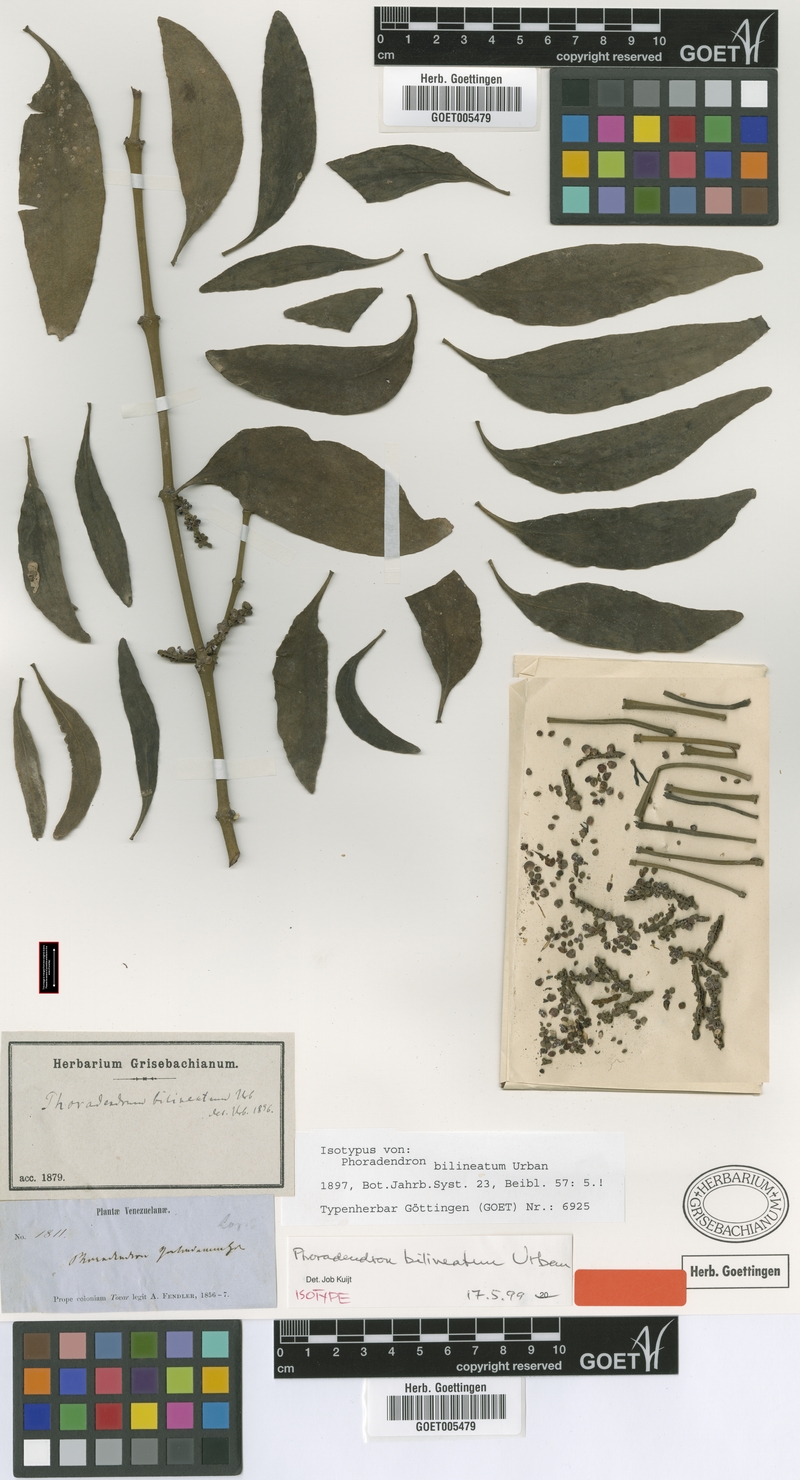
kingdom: Plantae
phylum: Tracheophyta
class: Magnoliopsida
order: Santalales
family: Viscaceae
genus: Phoradendron
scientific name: Phoradendron bilineatum
